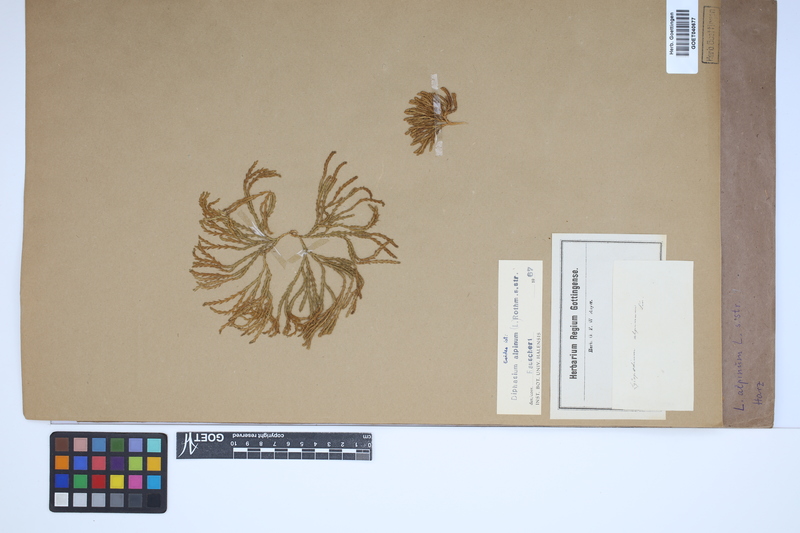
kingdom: Plantae
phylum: Tracheophyta
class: Lycopodiopsida
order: Lycopodiales
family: Lycopodiaceae
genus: Diphasiastrum
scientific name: Diphasiastrum alpinum
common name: Alpine clubmoss
